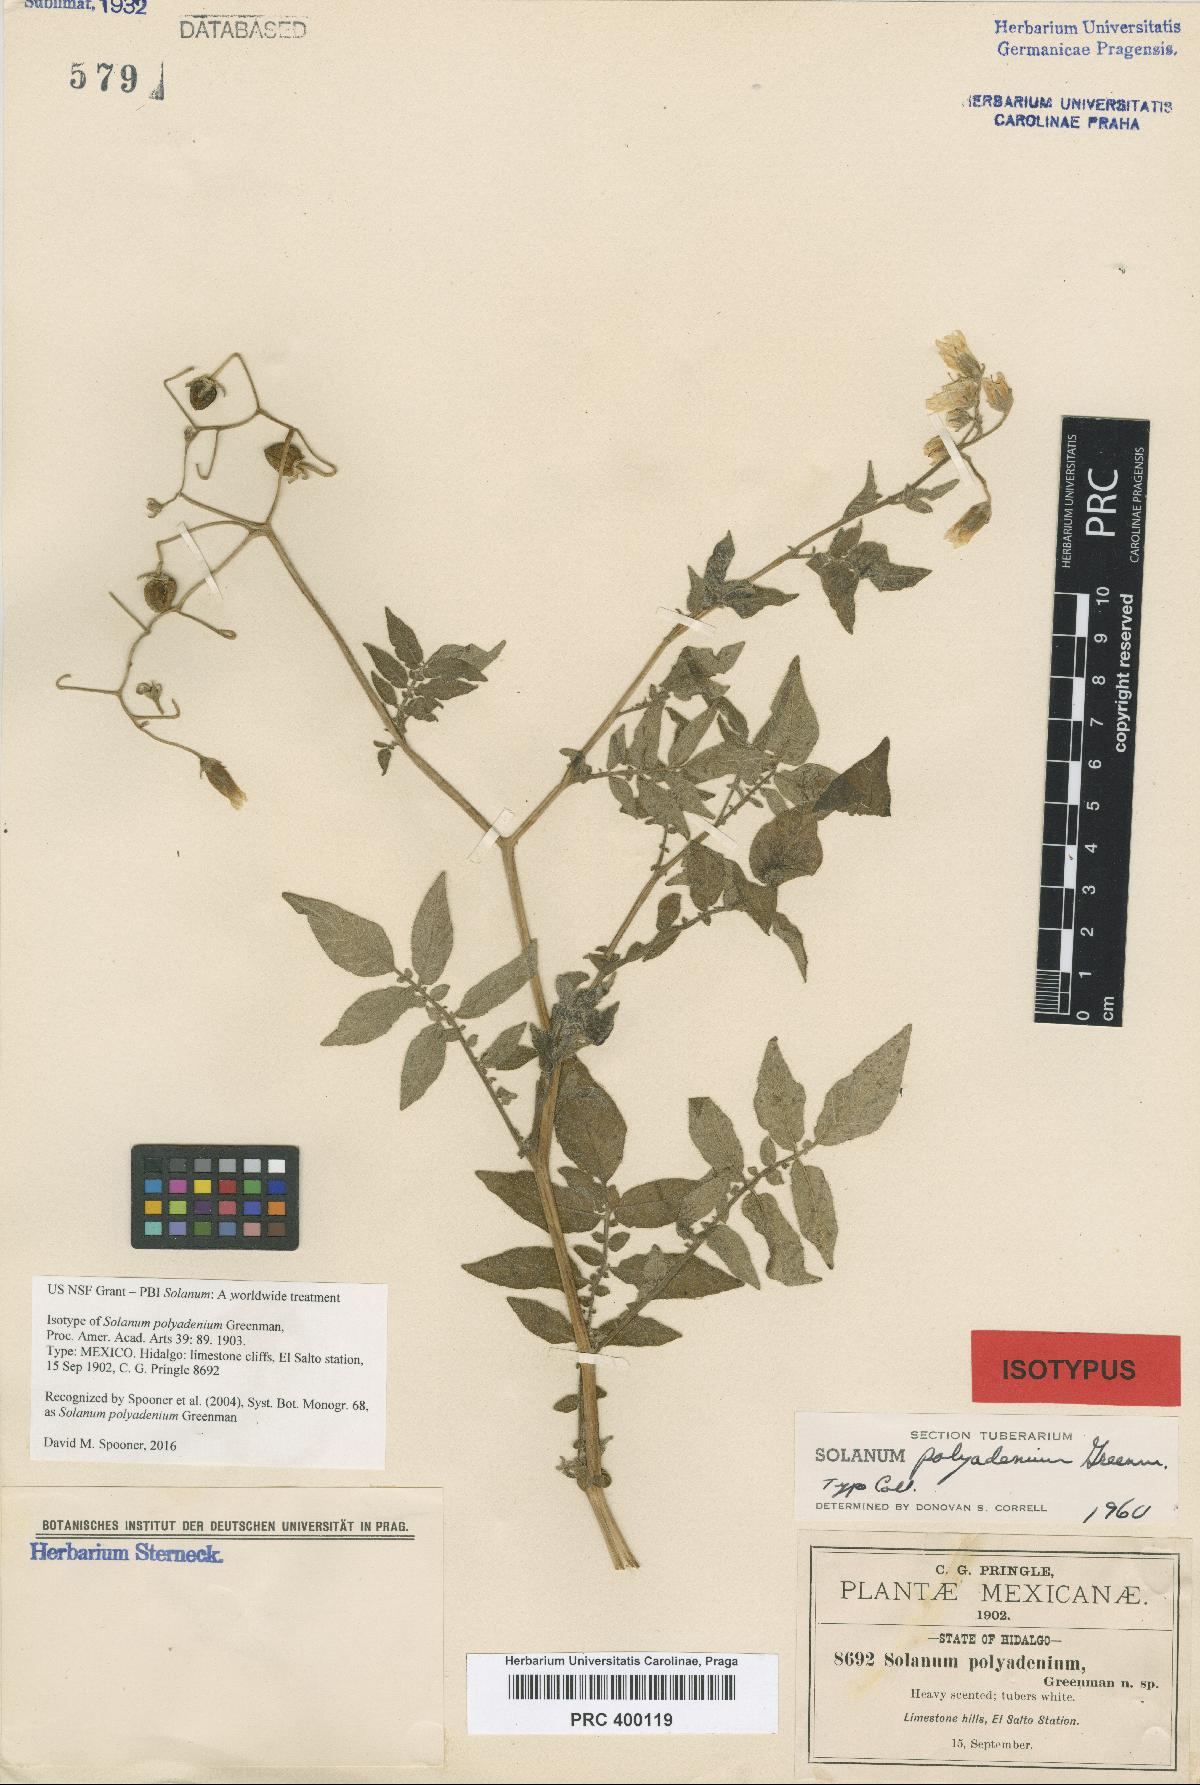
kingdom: Plantae
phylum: Tracheophyta
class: Magnoliopsida
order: Solanales
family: Solanaceae
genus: Solanum
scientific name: Solanum polyadenium
